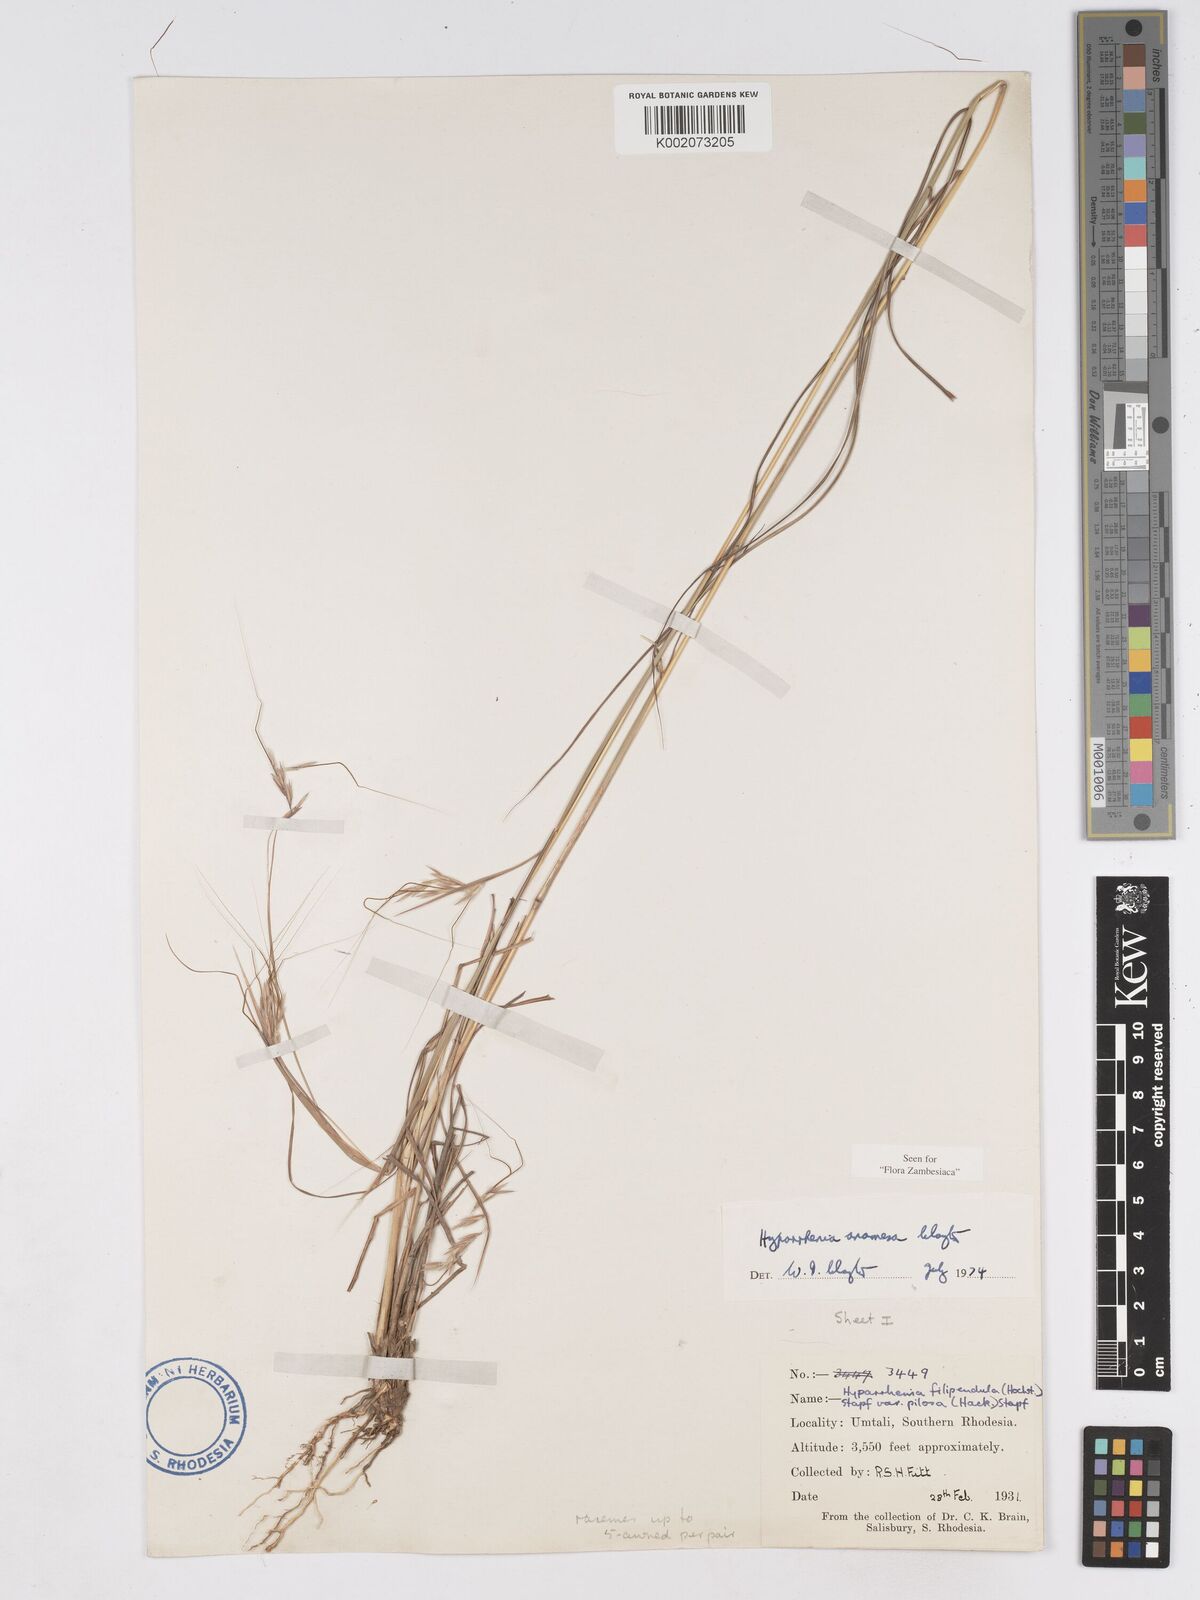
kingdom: Plantae
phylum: Tracheophyta
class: Liliopsida
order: Poales
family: Poaceae
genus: Hyparrhenia
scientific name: Hyparrhenia anamesa
